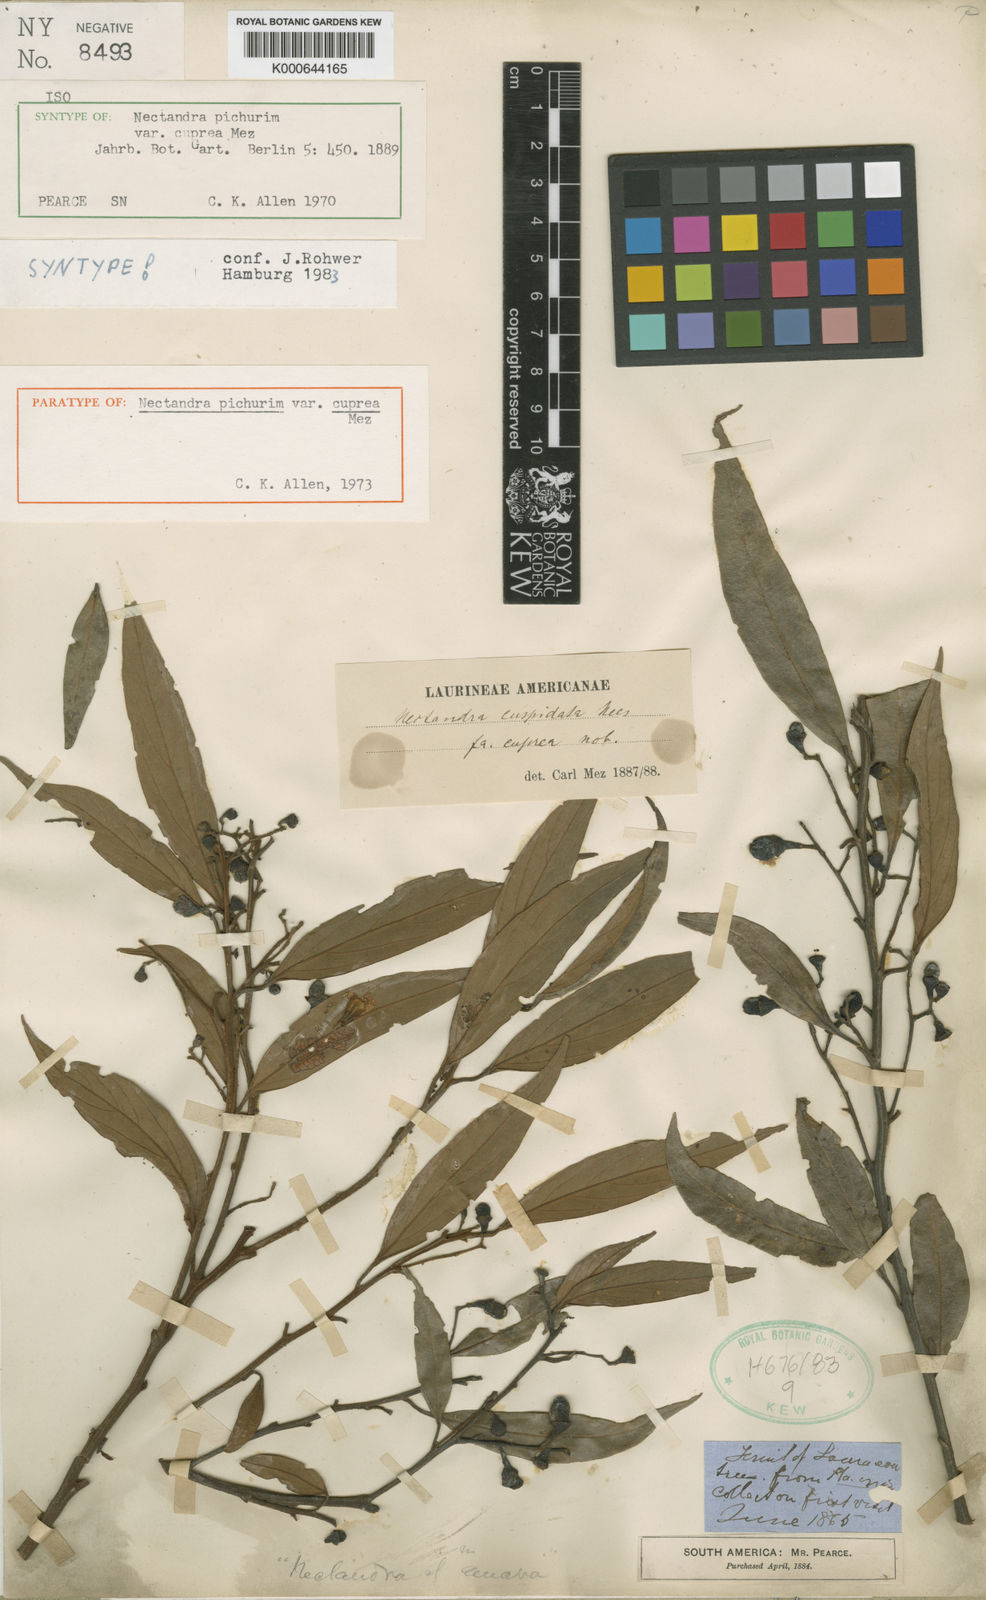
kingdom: Plantae
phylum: Tracheophyta
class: Magnoliopsida
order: Laurales
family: Lauraceae
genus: Nectandra
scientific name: Nectandra cuspidata
